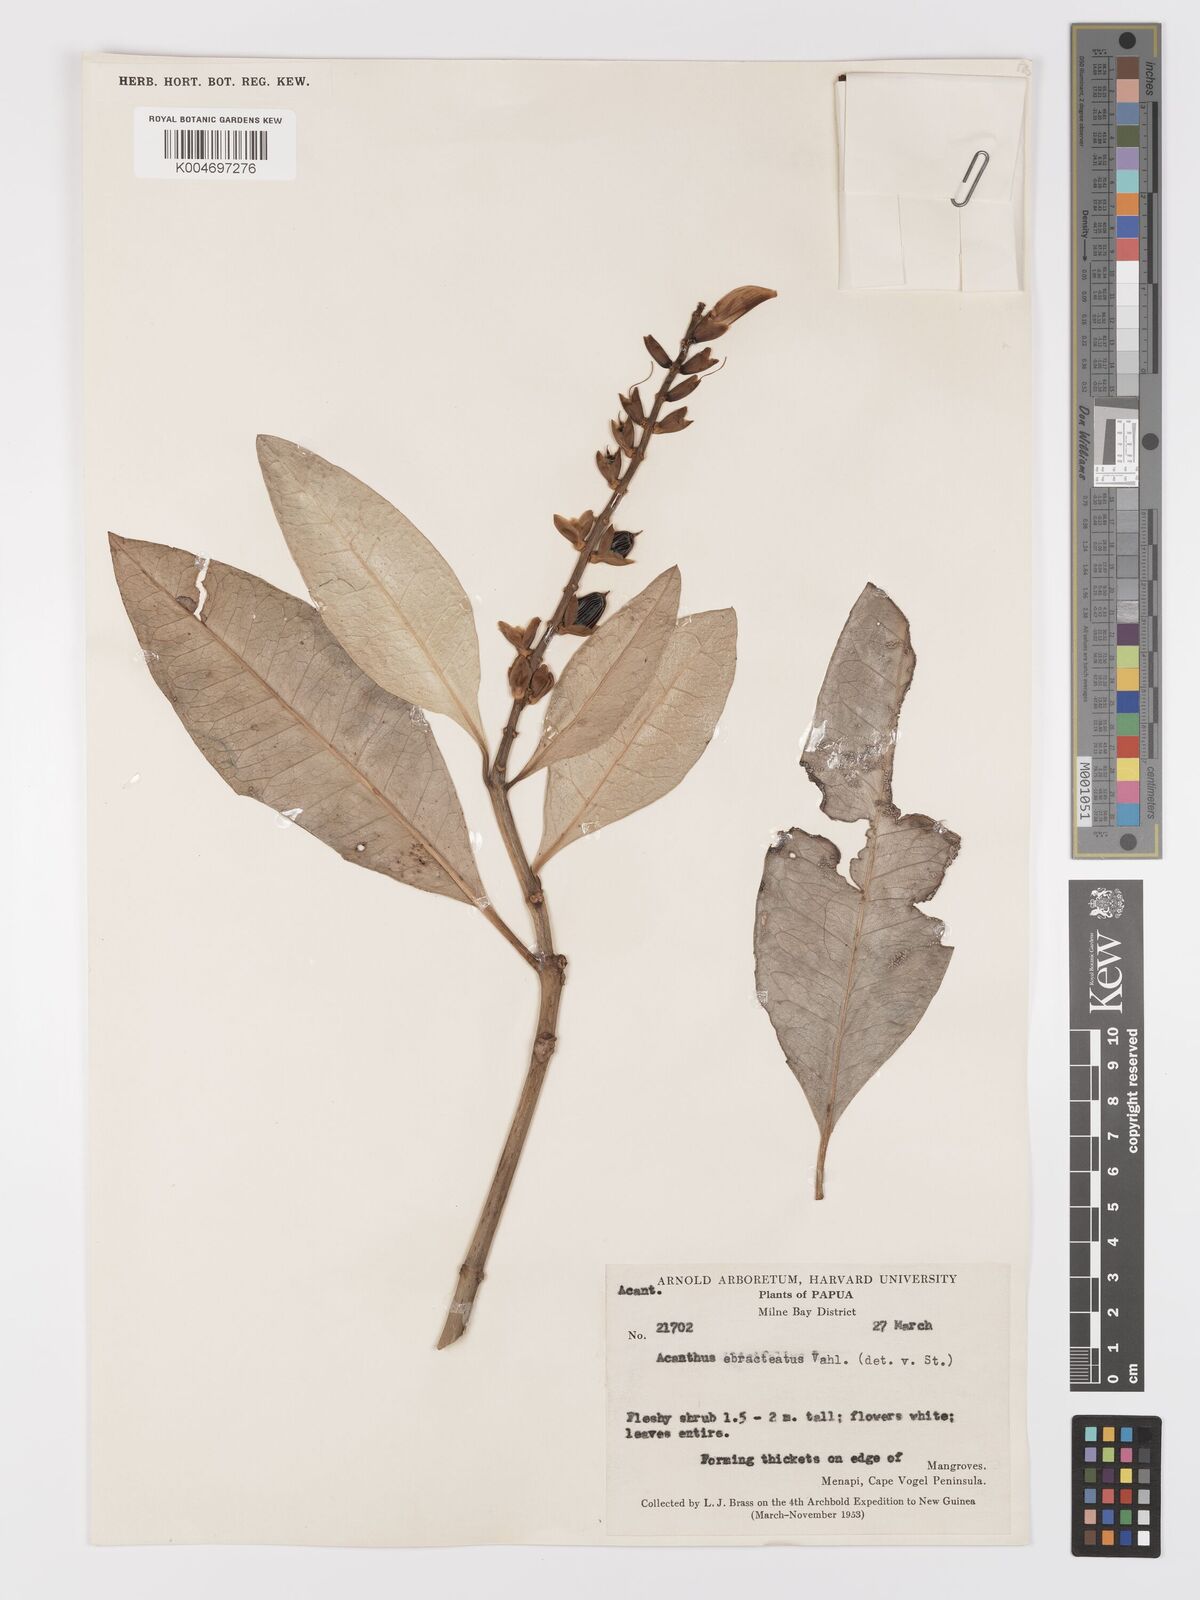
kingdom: Plantae
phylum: Tracheophyta
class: Magnoliopsida
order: Lamiales
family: Acanthaceae
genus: Acanthus
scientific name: Acanthus ebracteatus
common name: Acanthus
